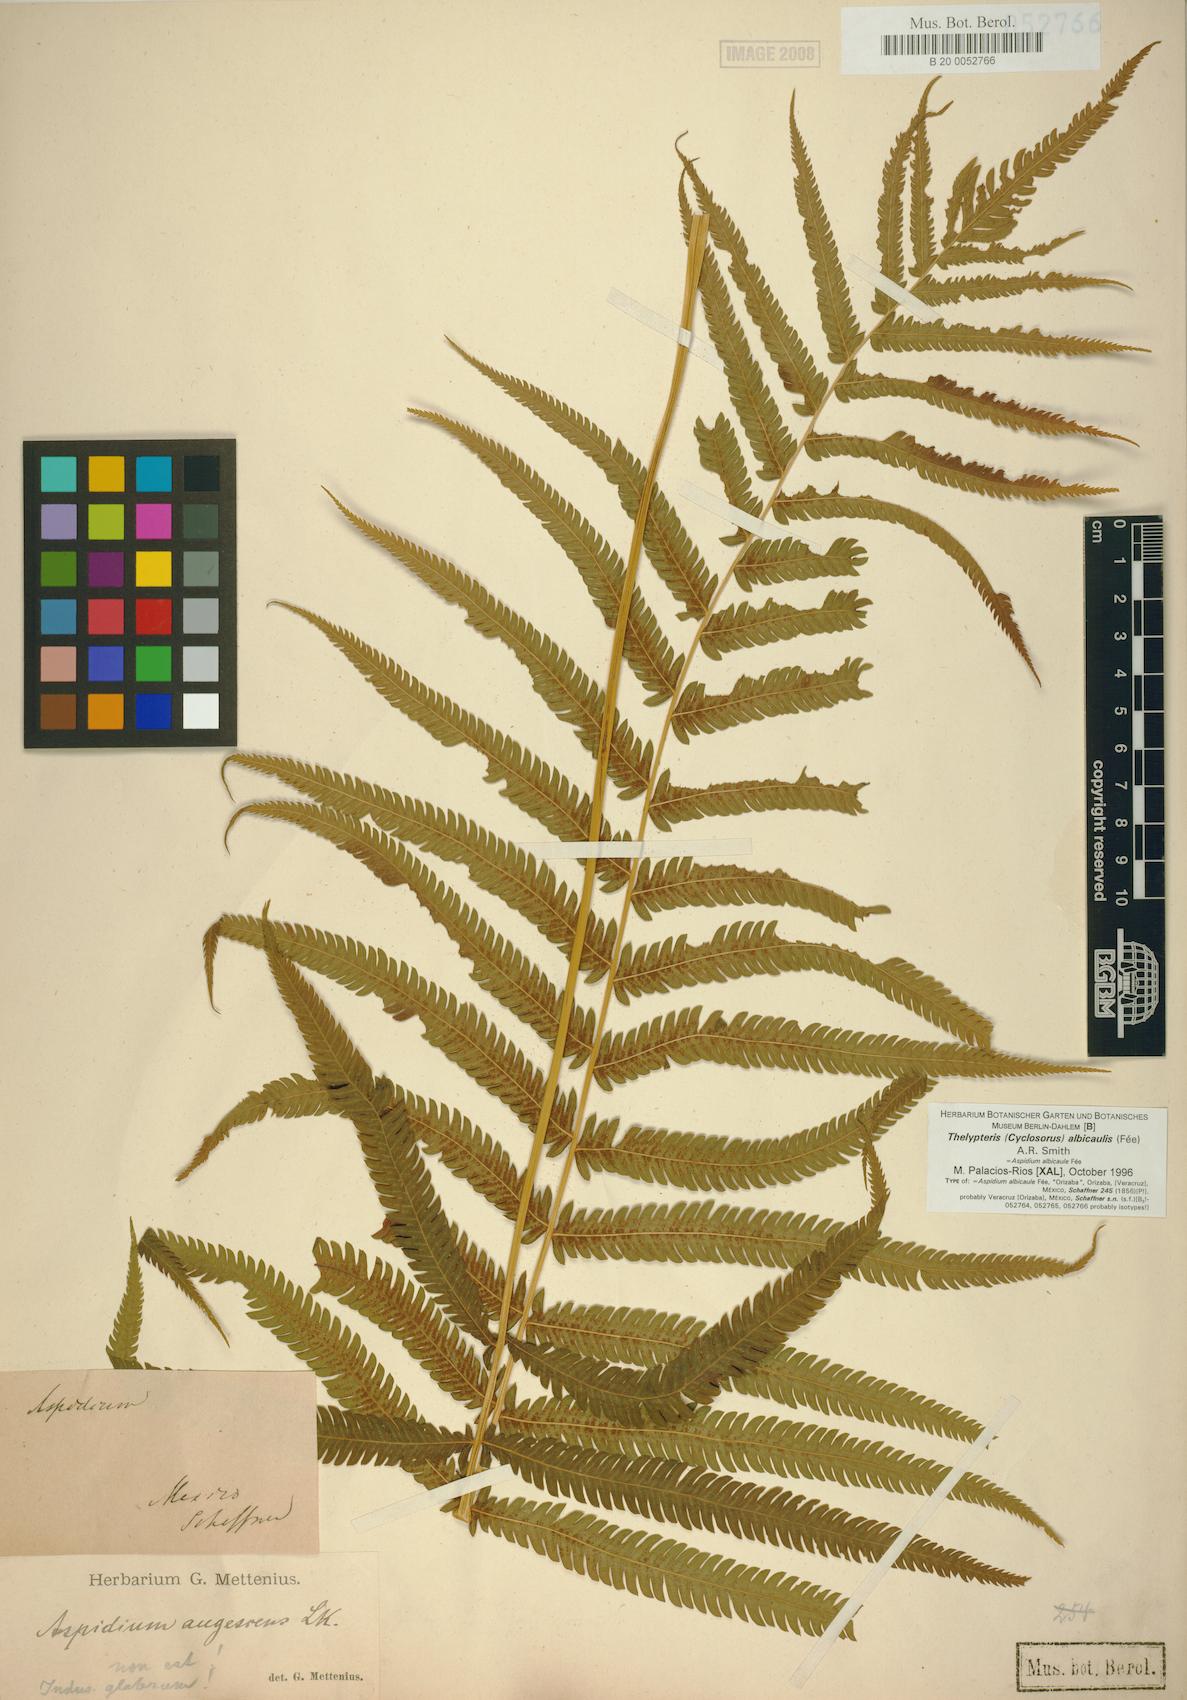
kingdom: Plantae
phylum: Tracheophyta
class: Polypodiopsida
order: Polypodiales
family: Thelypteridaceae
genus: Pelazoneuron
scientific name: Pelazoneuron albicaule
